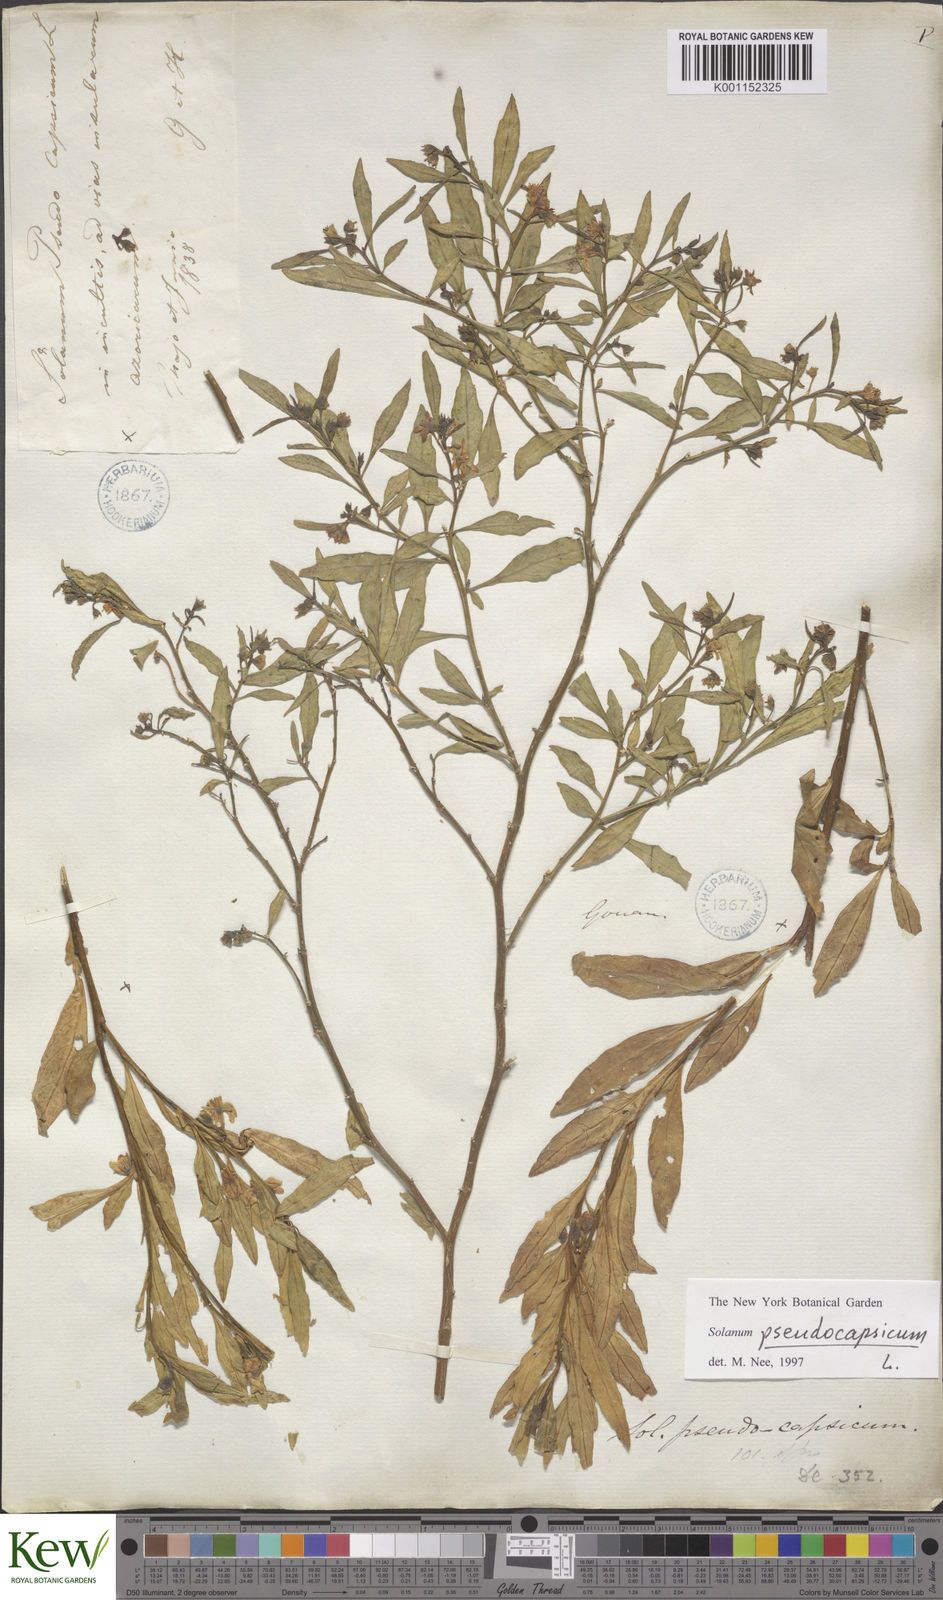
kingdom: Plantae
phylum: Tracheophyta
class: Magnoliopsida
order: Solanales
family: Solanaceae
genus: Solanum
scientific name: Solanum pseudocapsicum
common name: Jerusalem cherry
